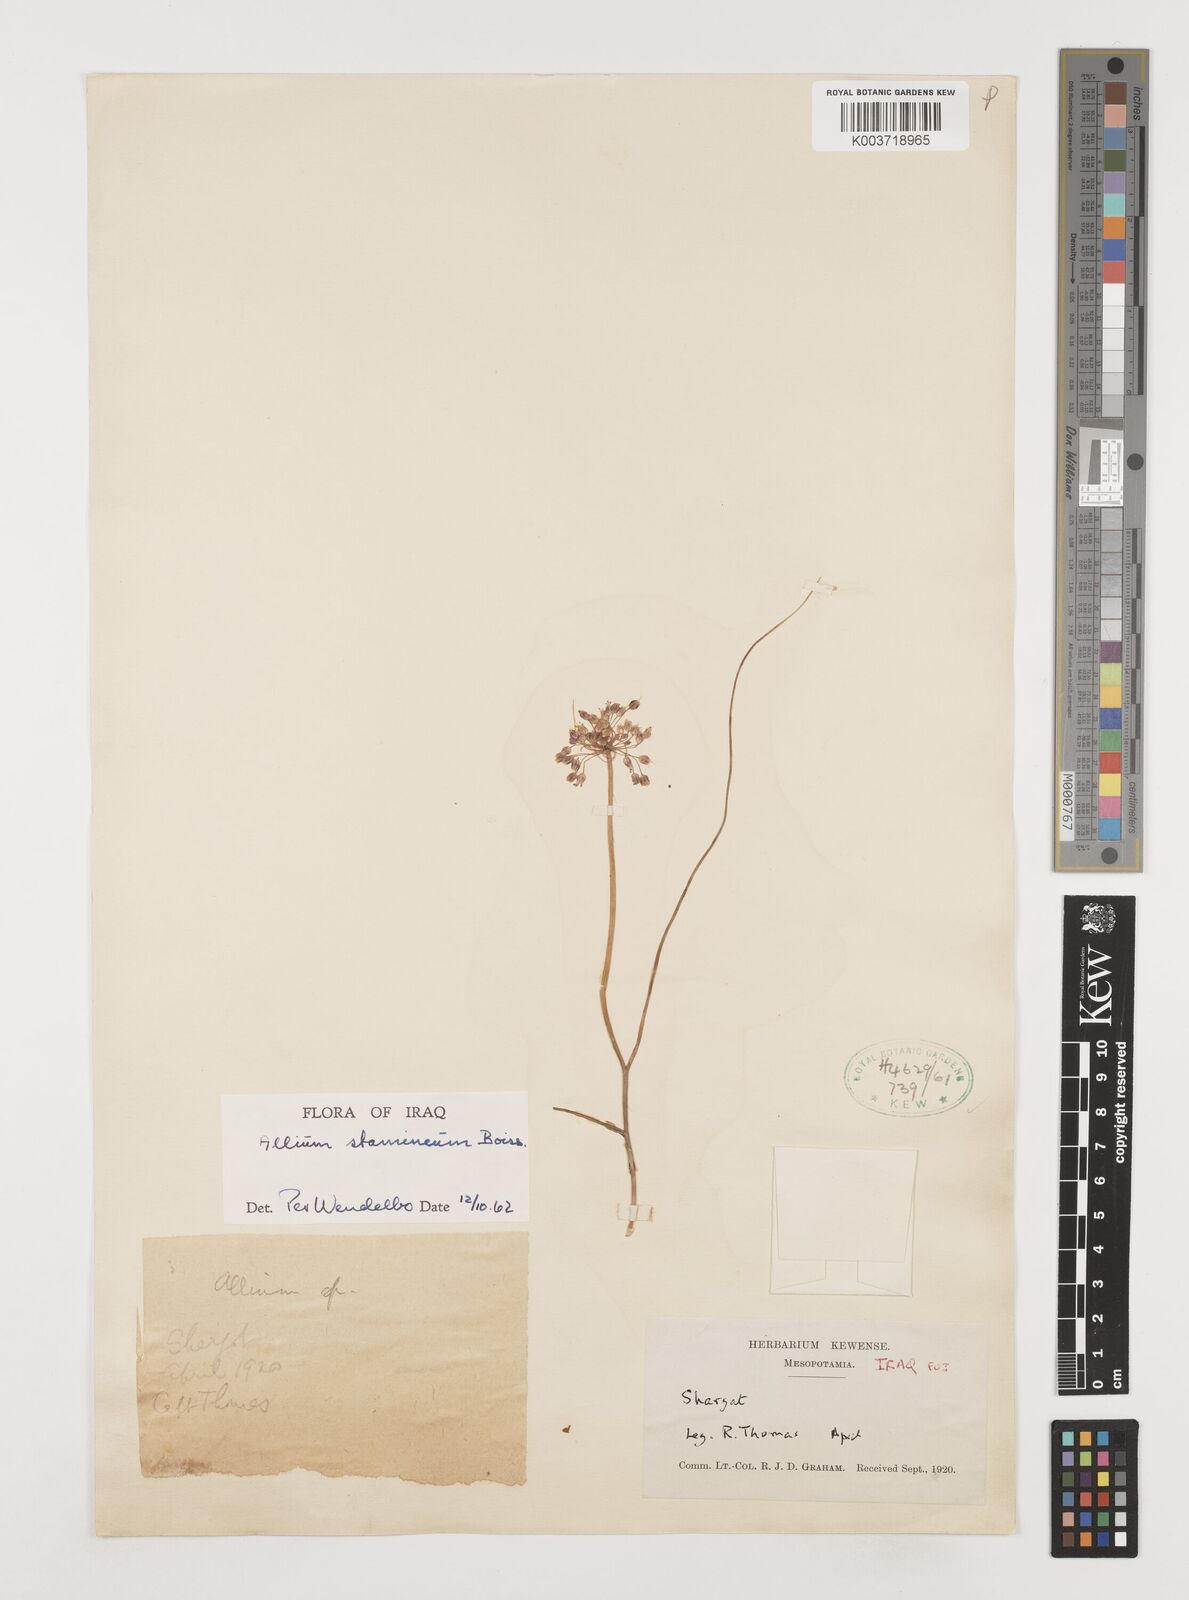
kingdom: Plantae
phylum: Tracheophyta
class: Liliopsida
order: Asparagales
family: Amaryllidaceae
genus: Allium
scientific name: Allium stamineum
